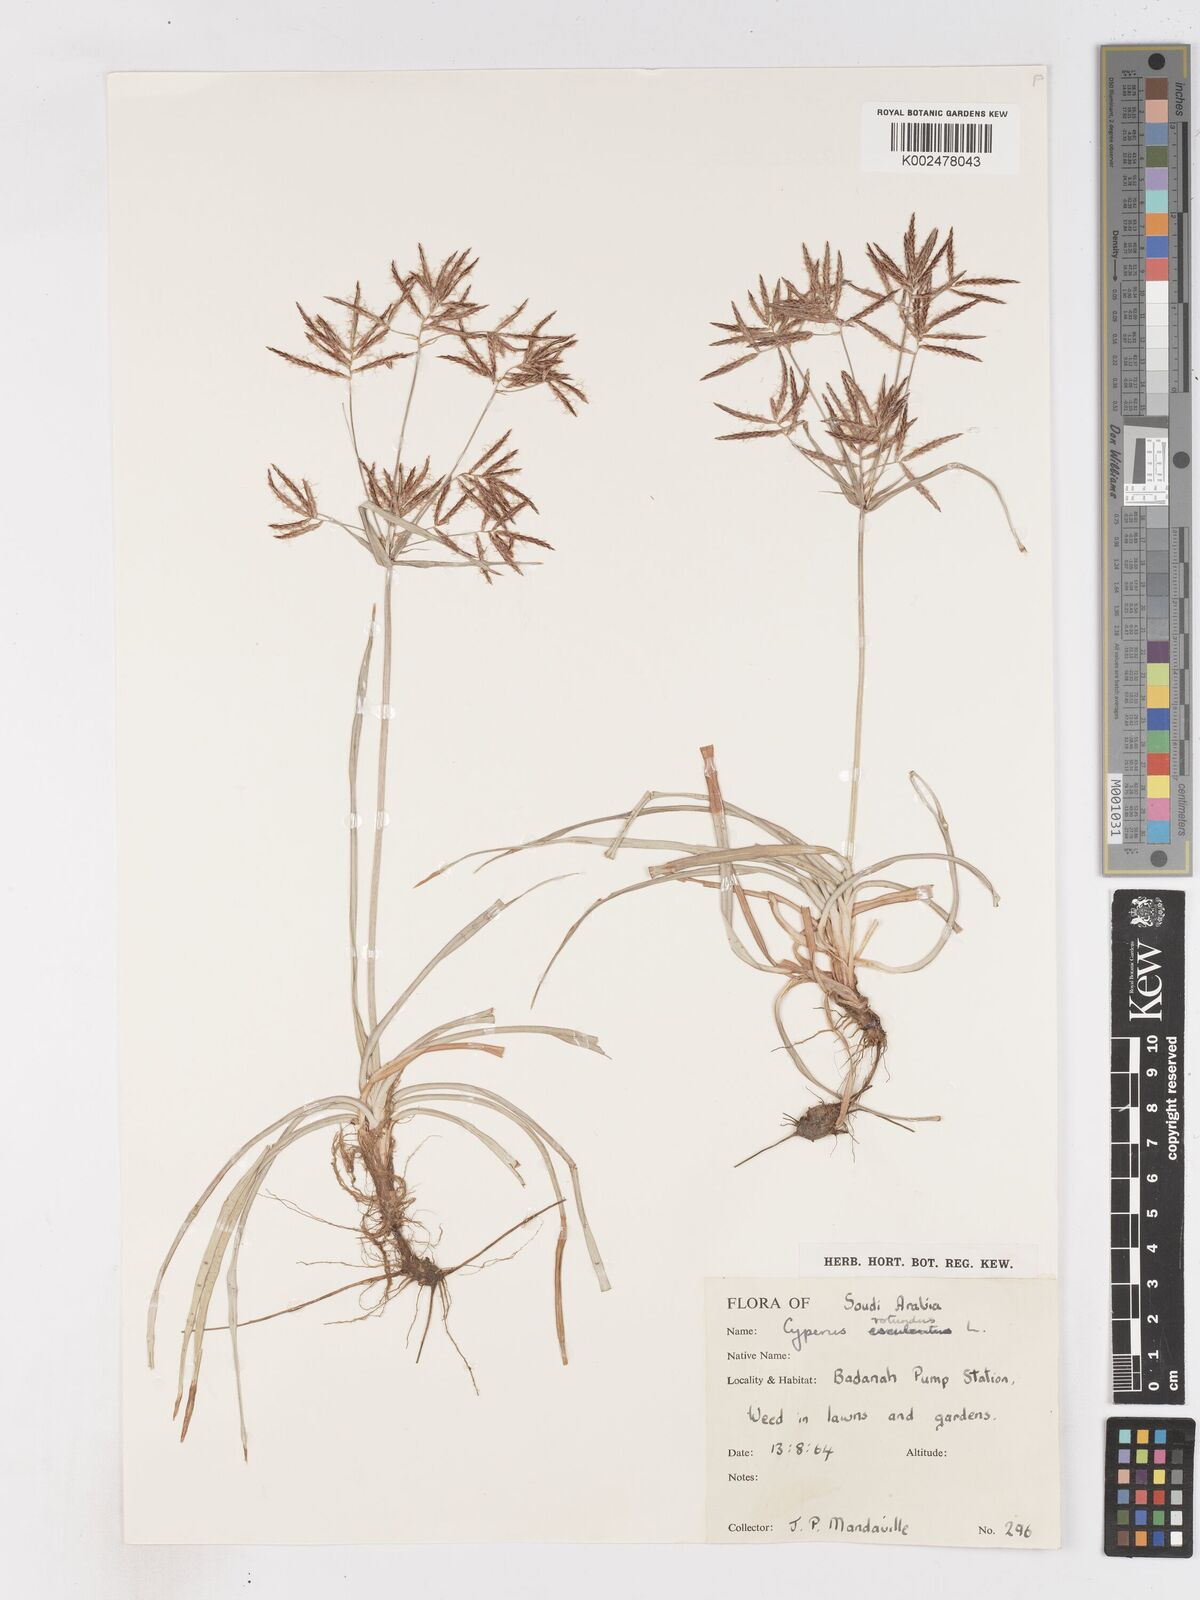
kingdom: Plantae
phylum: Tracheophyta
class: Liliopsida
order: Poales
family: Cyperaceae
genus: Cyperus
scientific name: Cyperus rotundus
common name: Nutgrass
